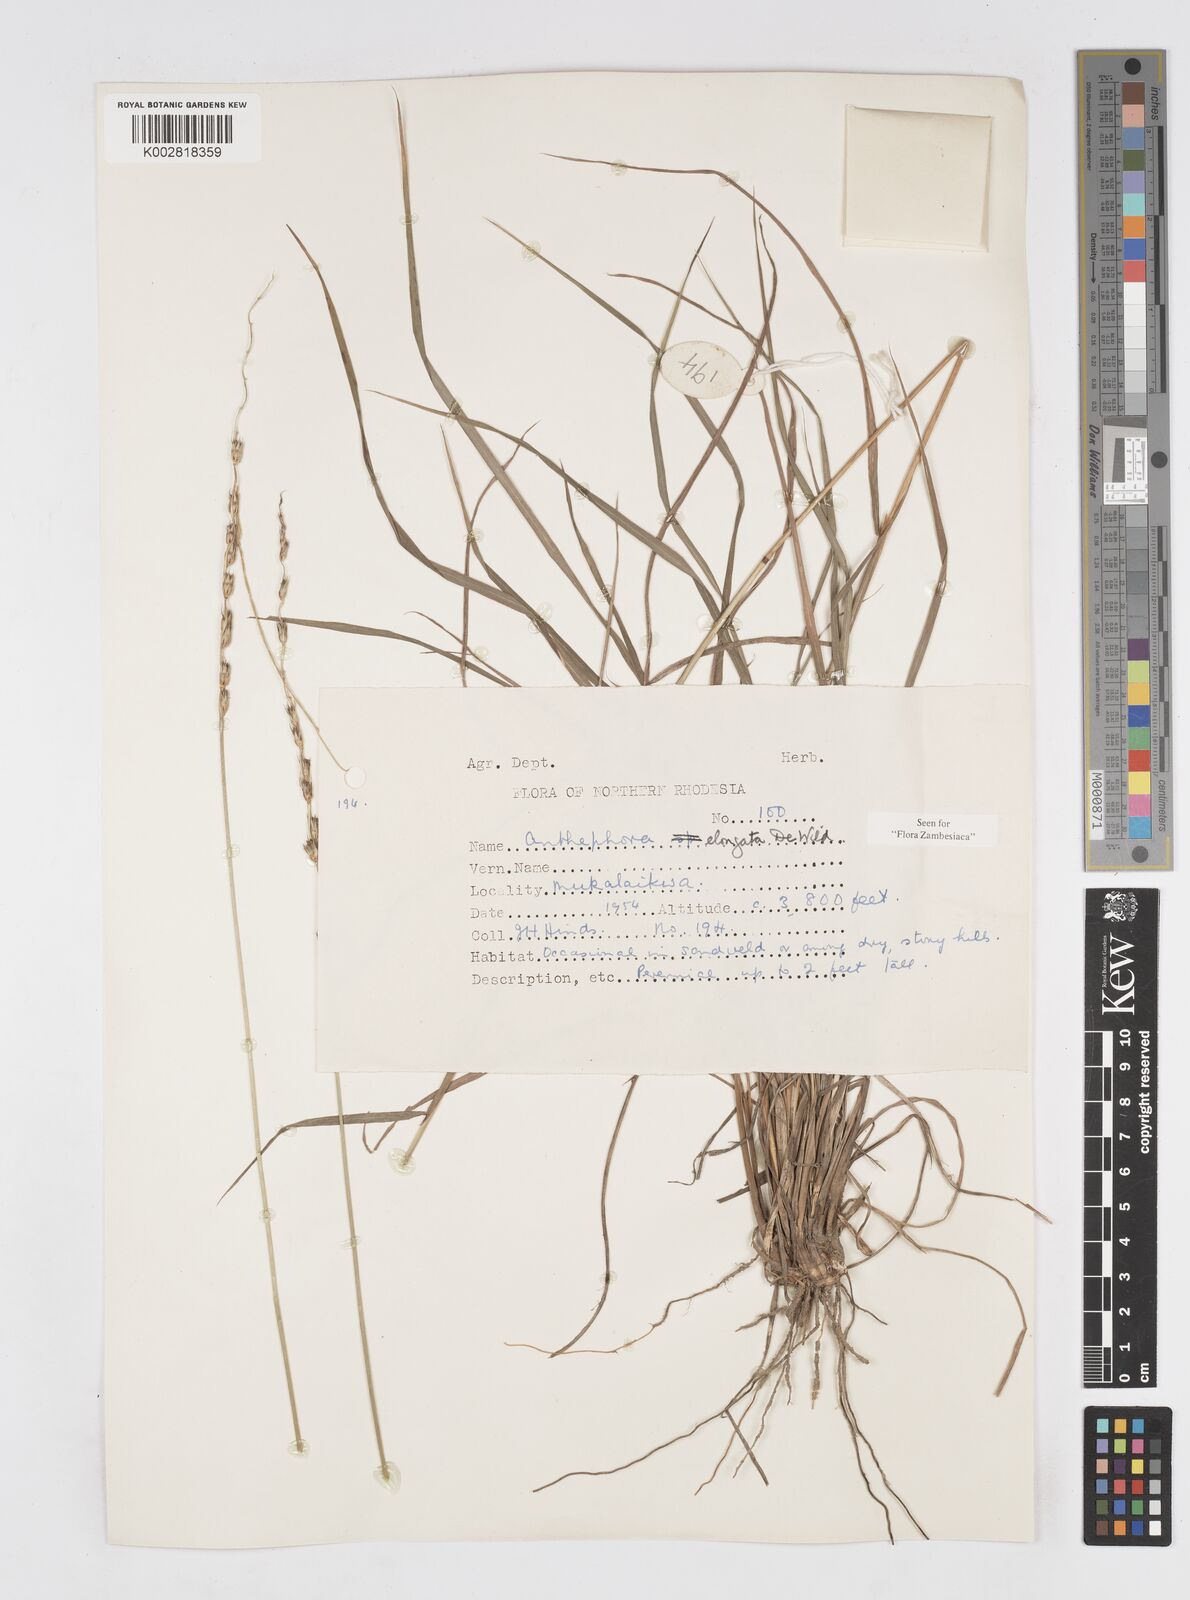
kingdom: Plantae
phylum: Tracheophyta
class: Liliopsida
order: Poales
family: Poaceae
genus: Anthephora
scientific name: Anthephora elongata
